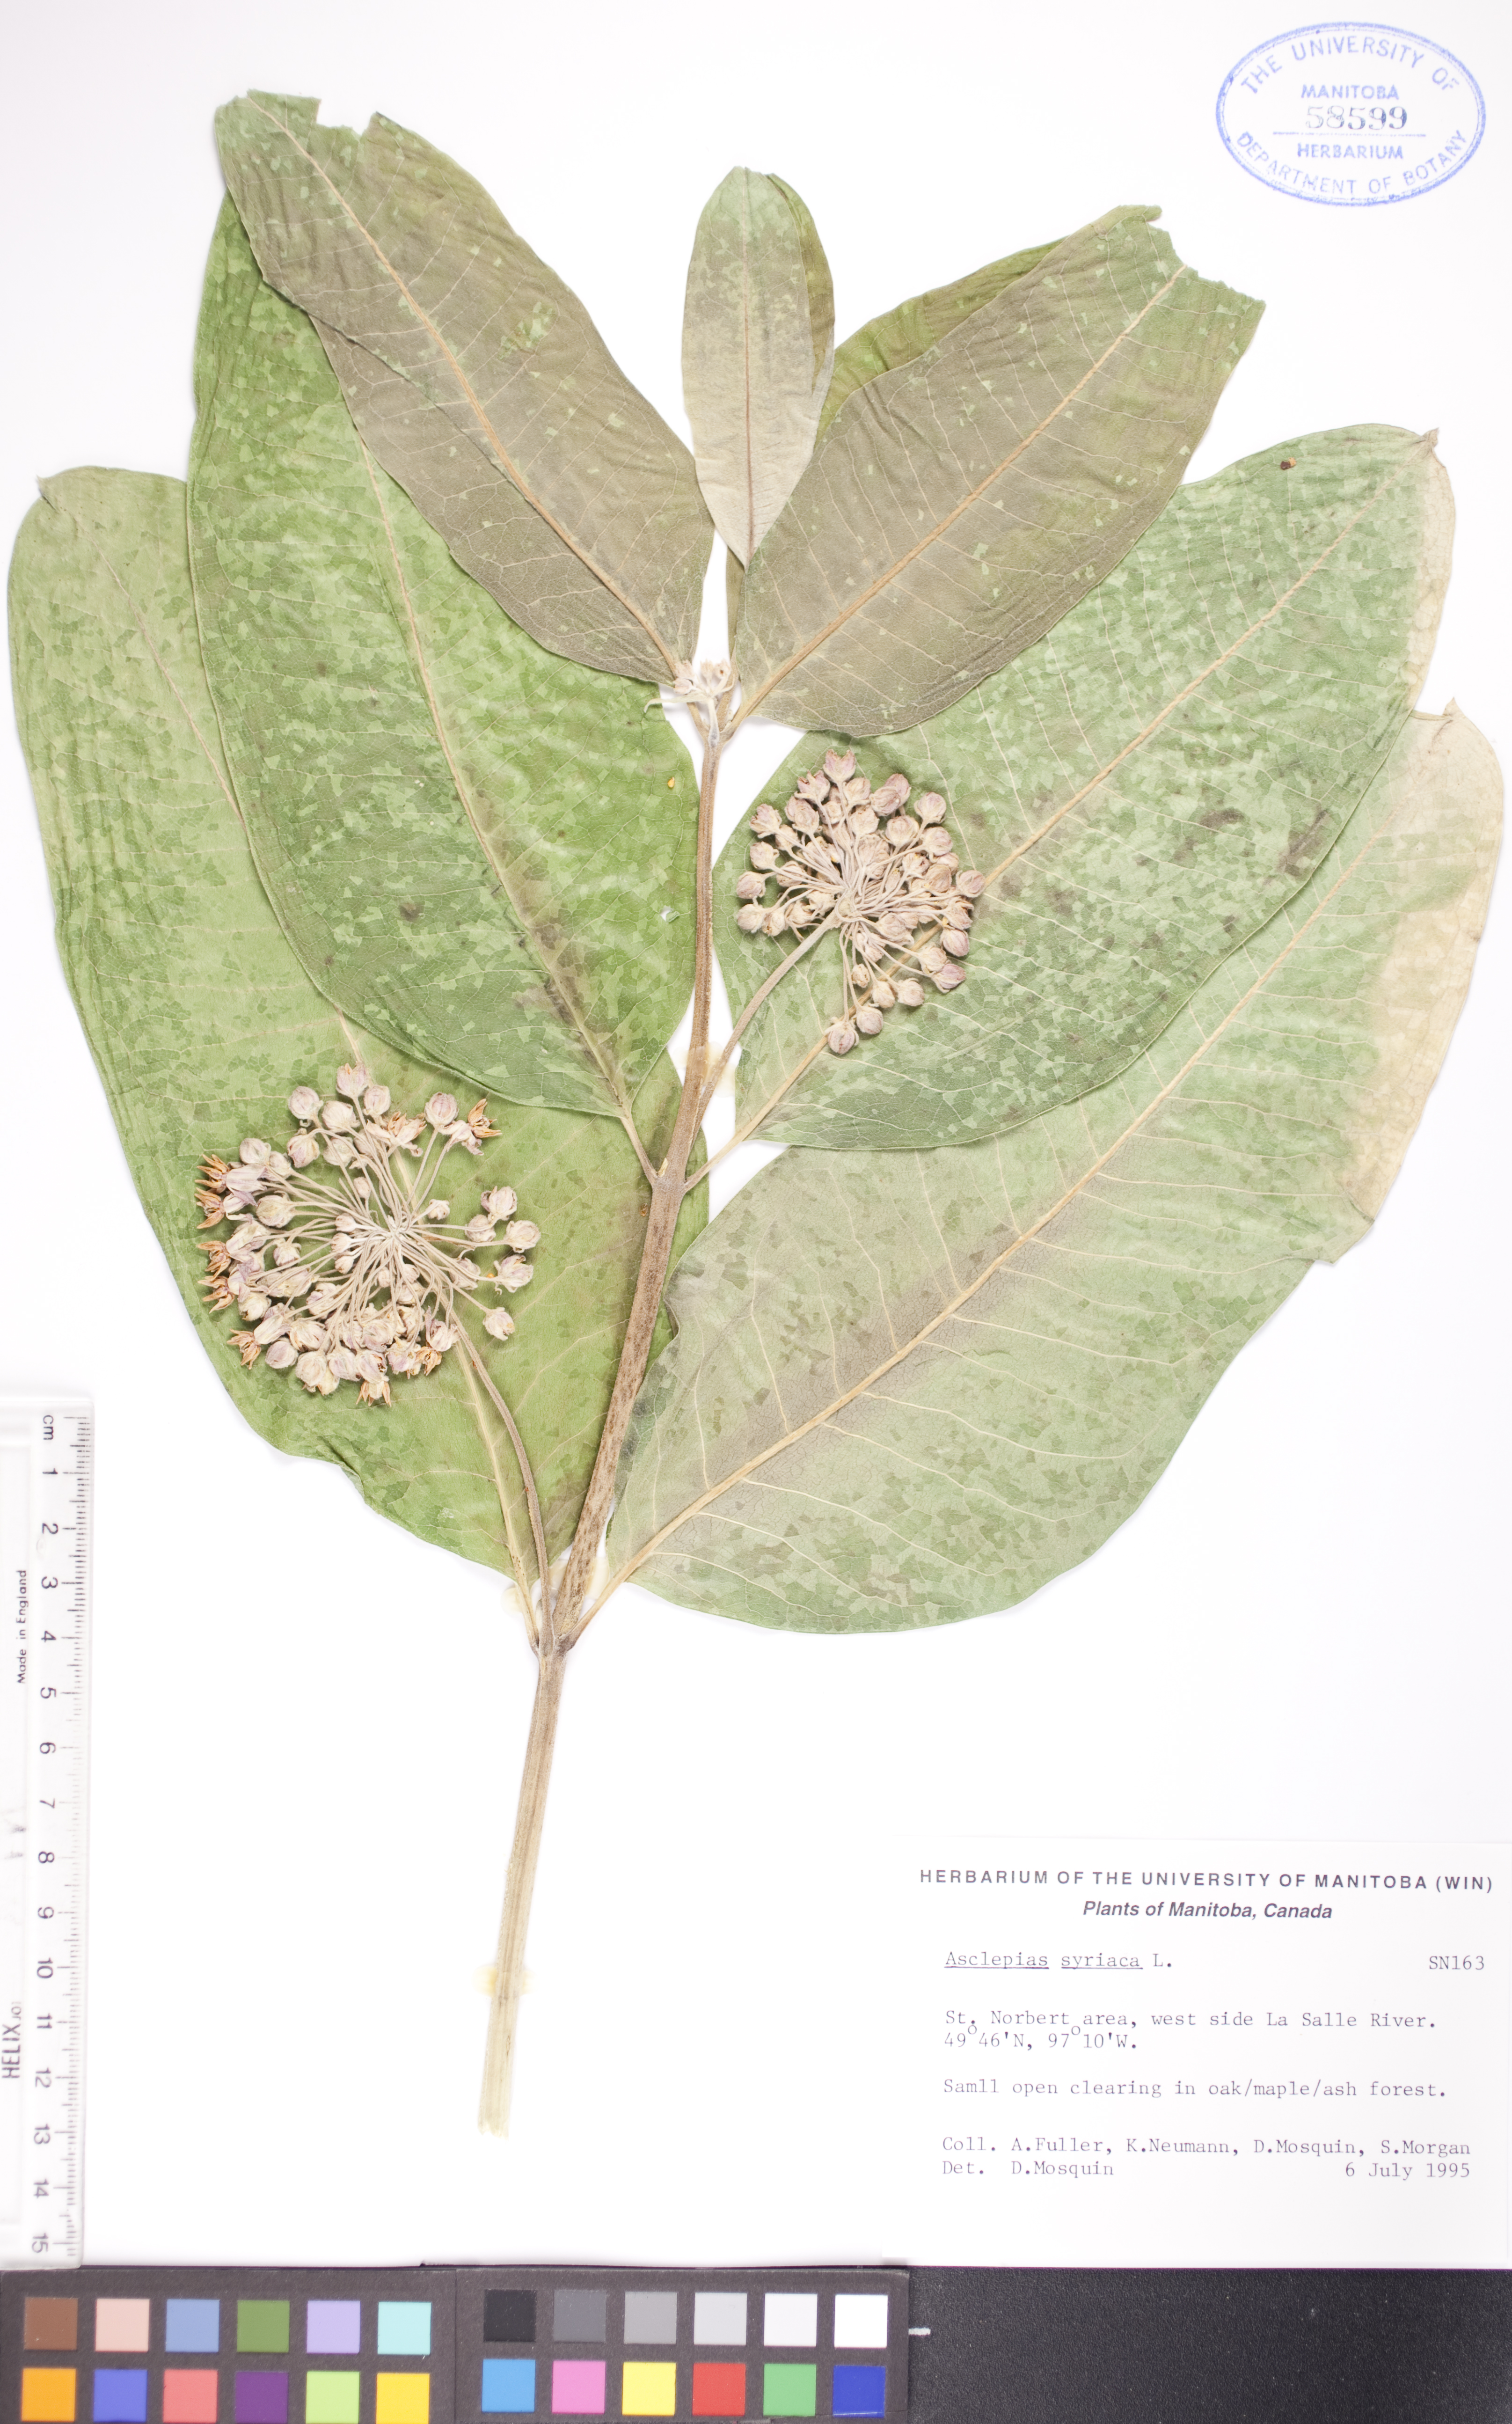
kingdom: Plantae
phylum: Tracheophyta
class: Magnoliopsida
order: Gentianales
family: Apocynaceae
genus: Asclepias
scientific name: Asclepias syriaca
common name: Common milkweed
